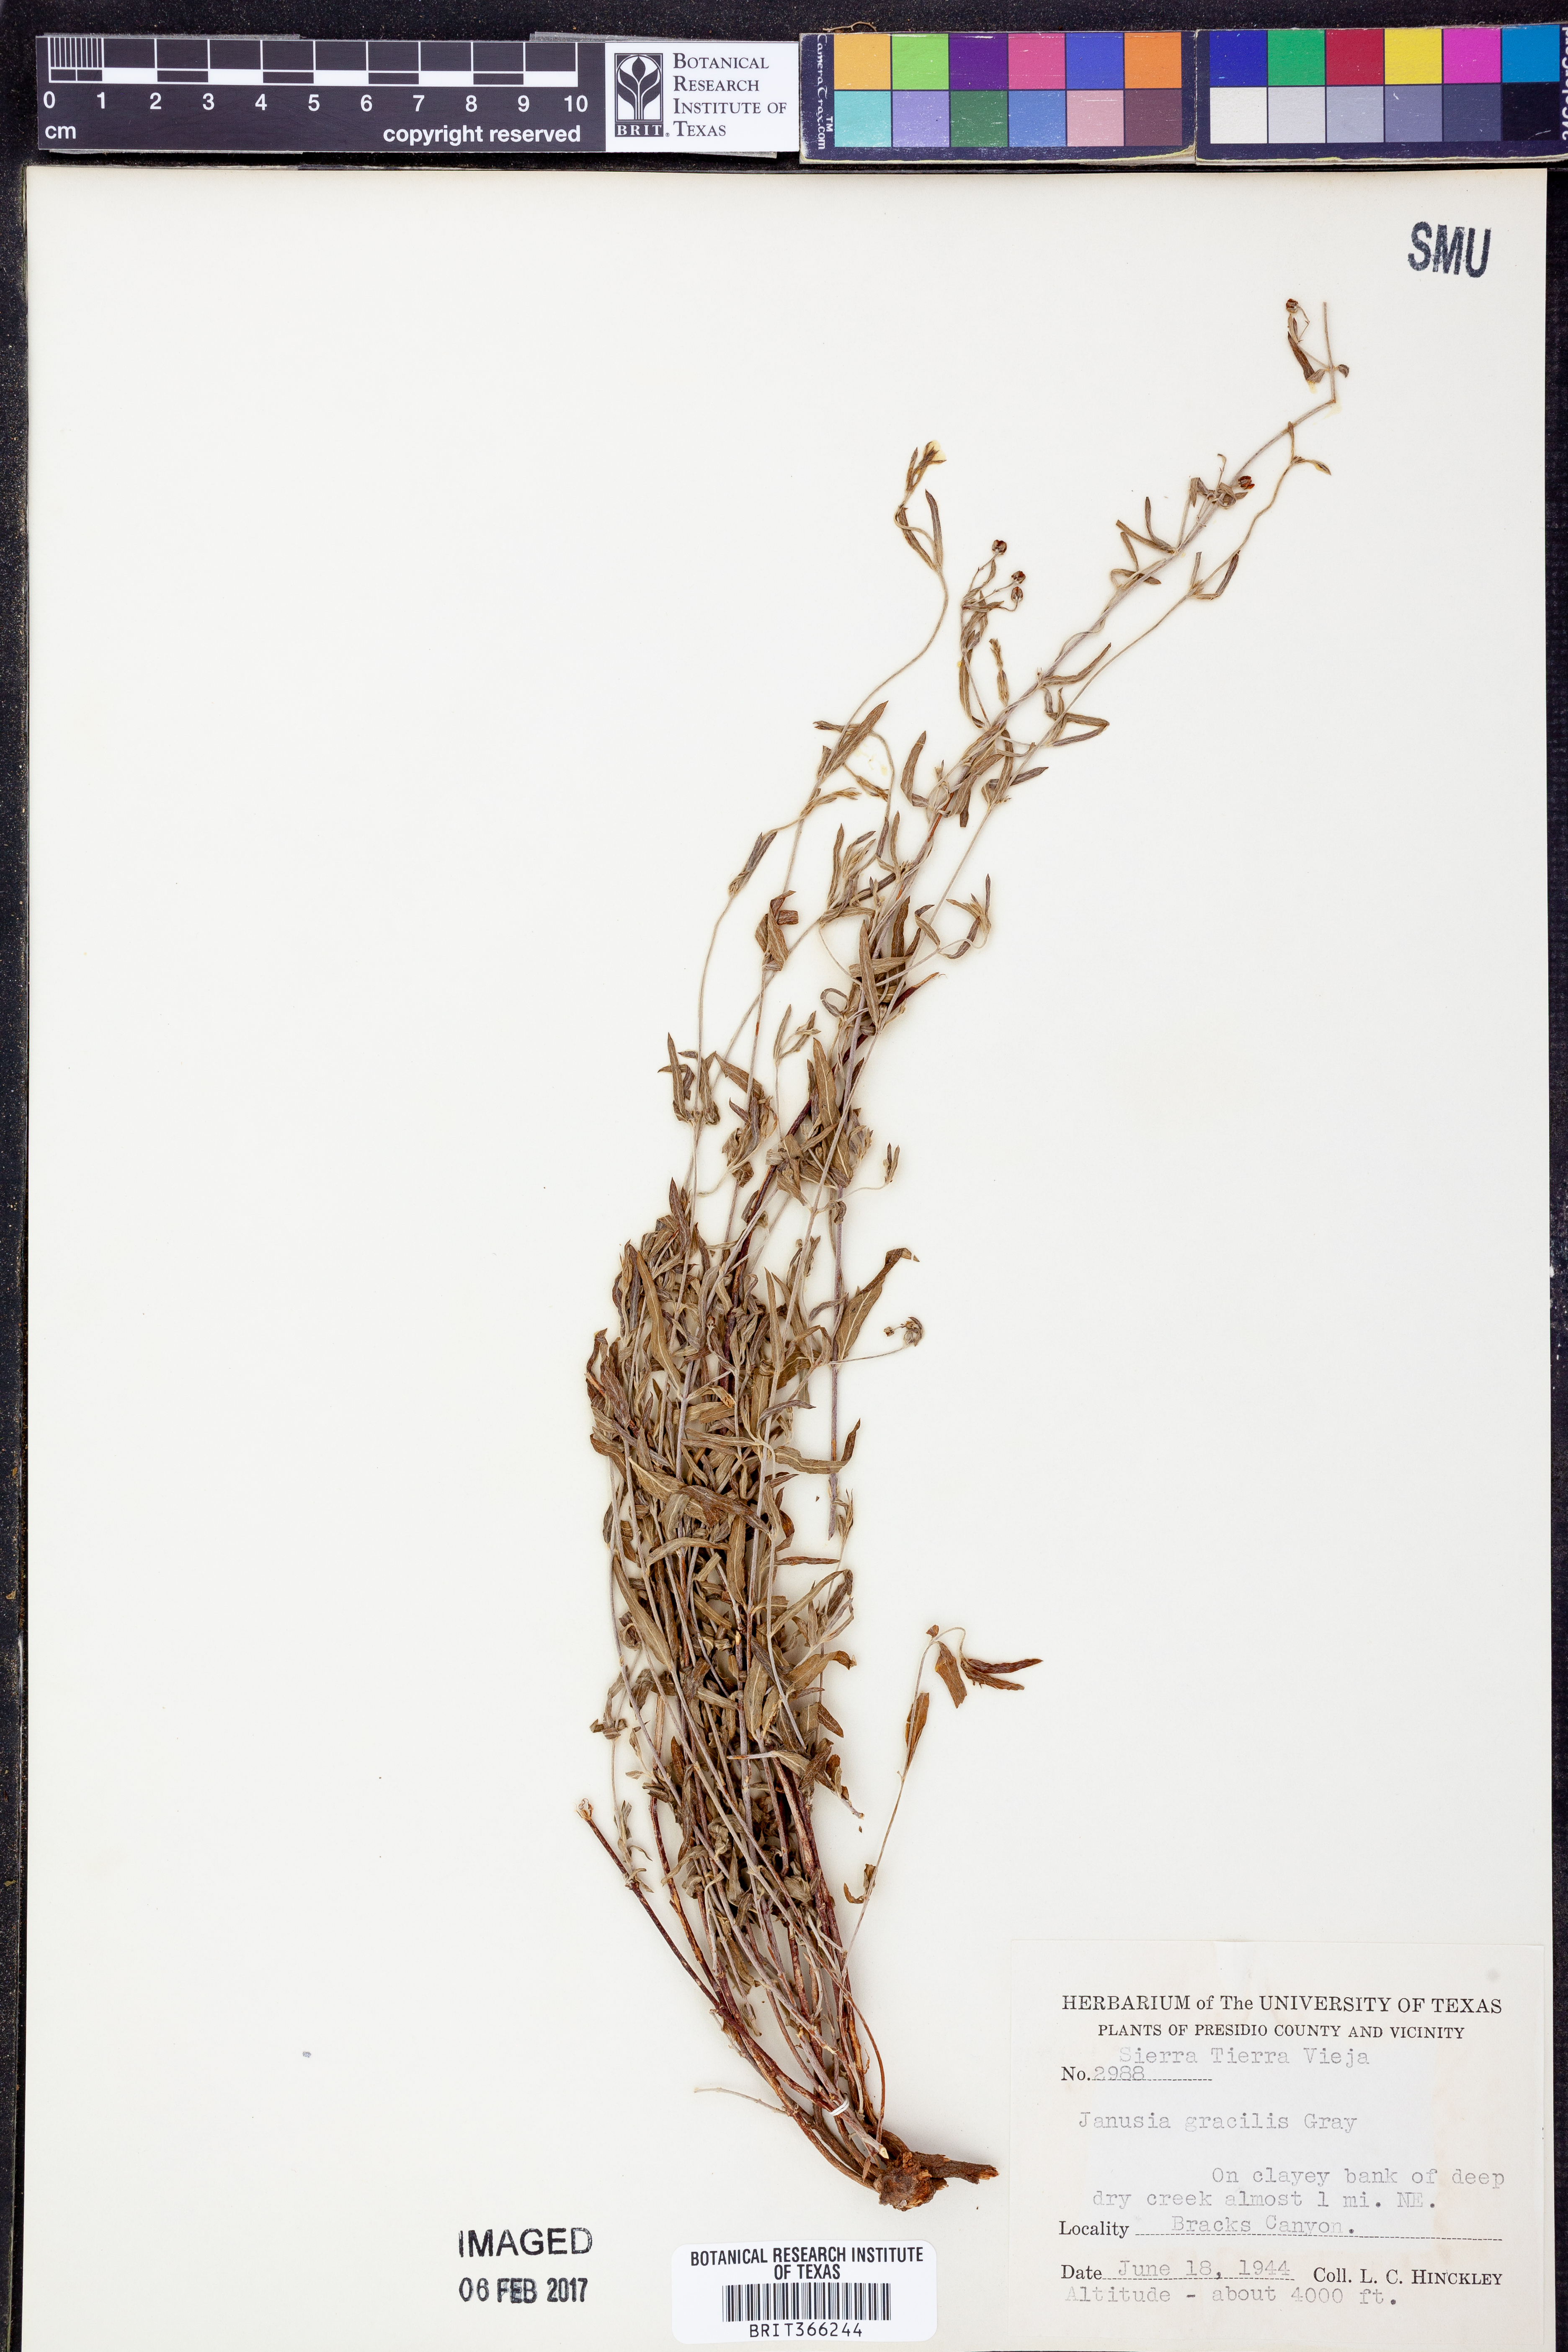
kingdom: Plantae
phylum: Tracheophyta
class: Magnoliopsida
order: Malpighiales
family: Malpighiaceae
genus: Cottsia
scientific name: Cottsia gracilis
